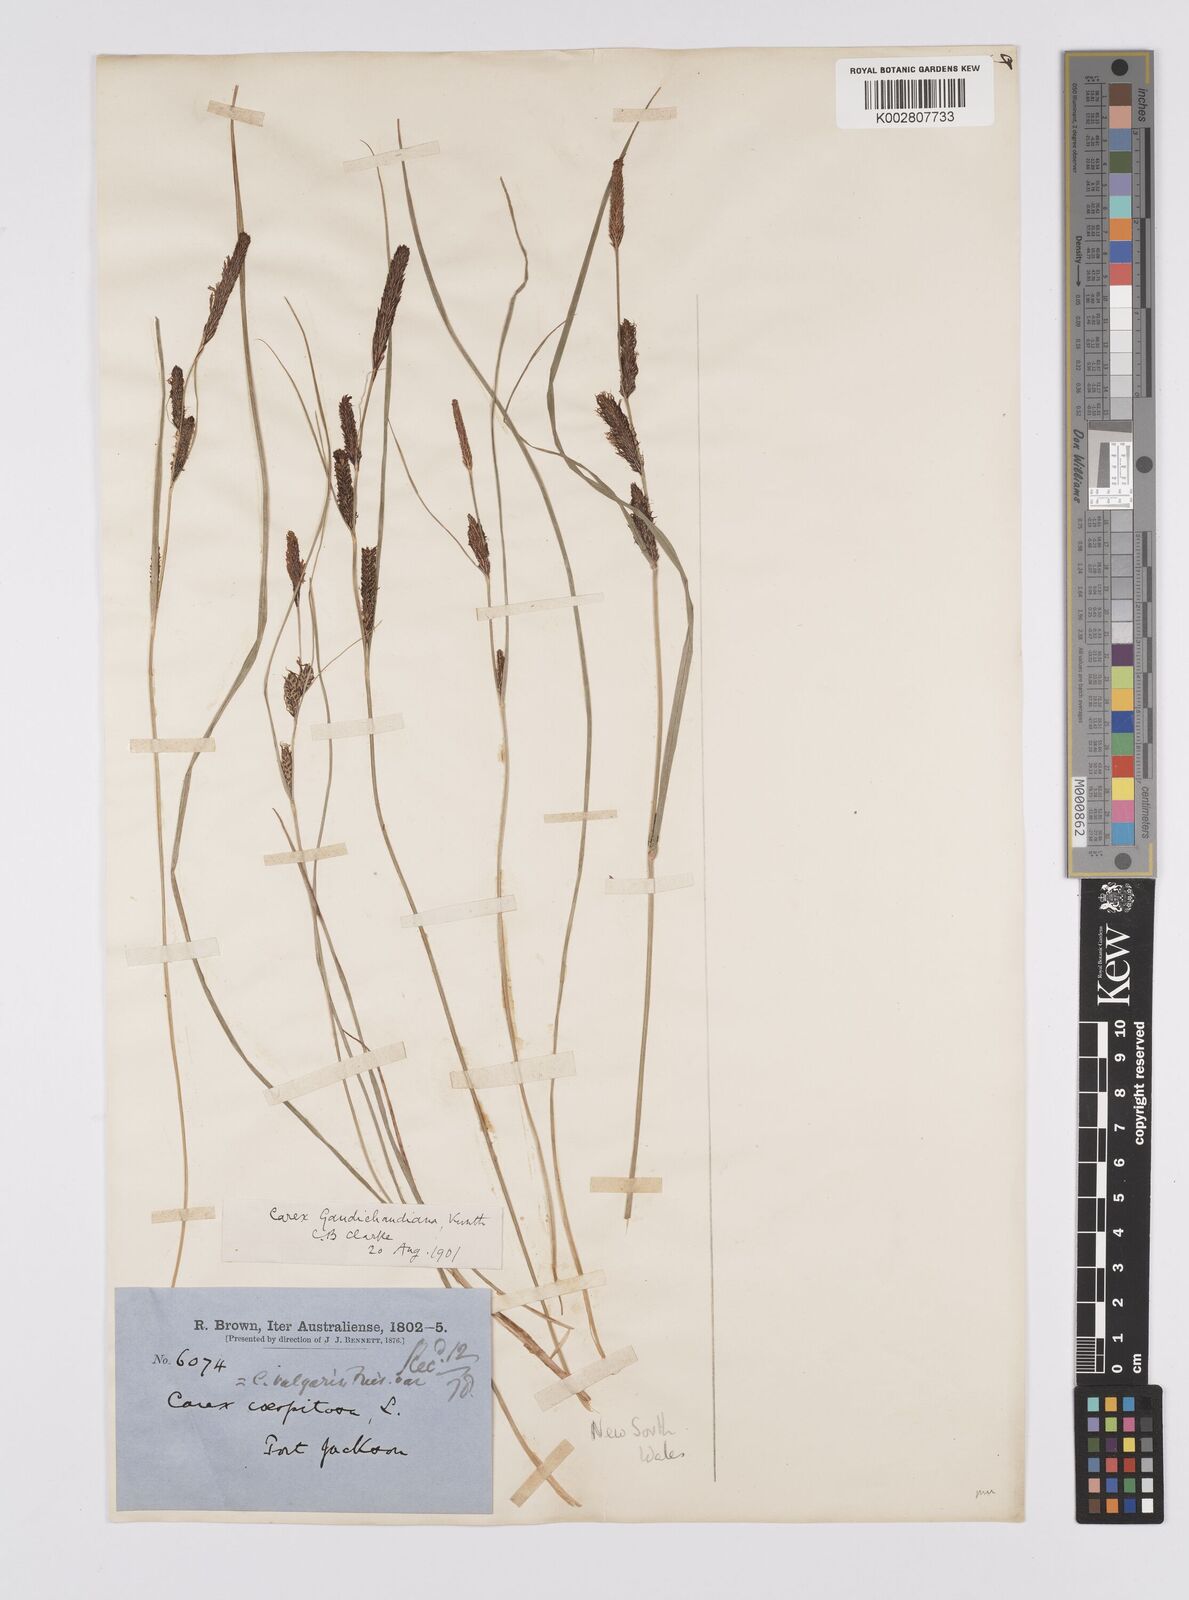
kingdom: Plantae
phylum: Tracheophyta
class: Liliopsida
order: Poales
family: Cyperaceae
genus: Carex
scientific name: Carex gaudichaudiana
